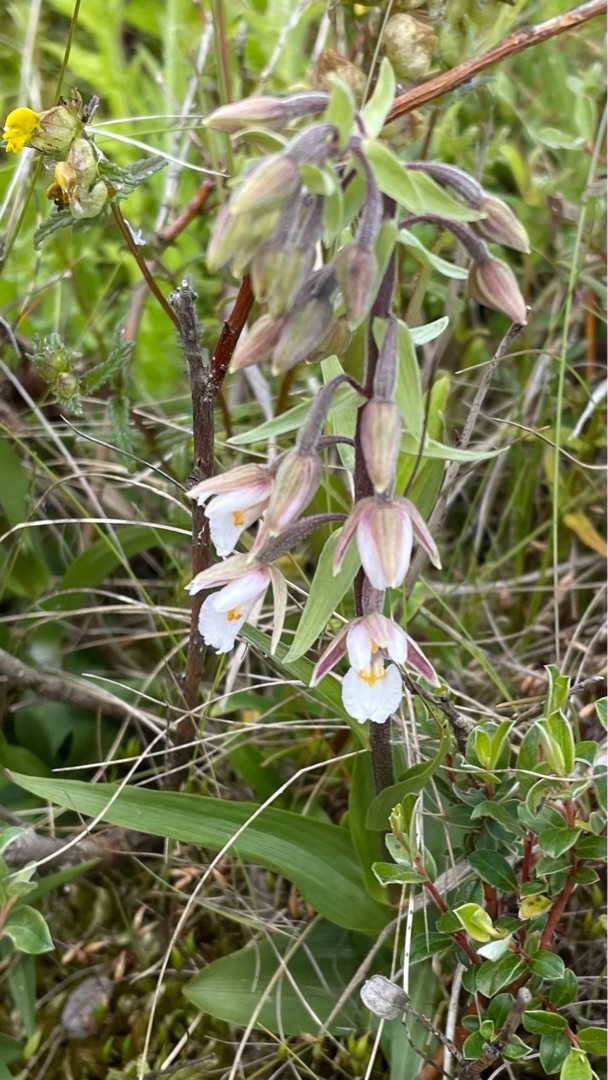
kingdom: Plantae
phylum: Tracheophyta
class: Liliopsida
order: Asparagales
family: Orchidaceae
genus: Epipactis
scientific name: Epipactis palustris
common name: Sump-hullæbe
